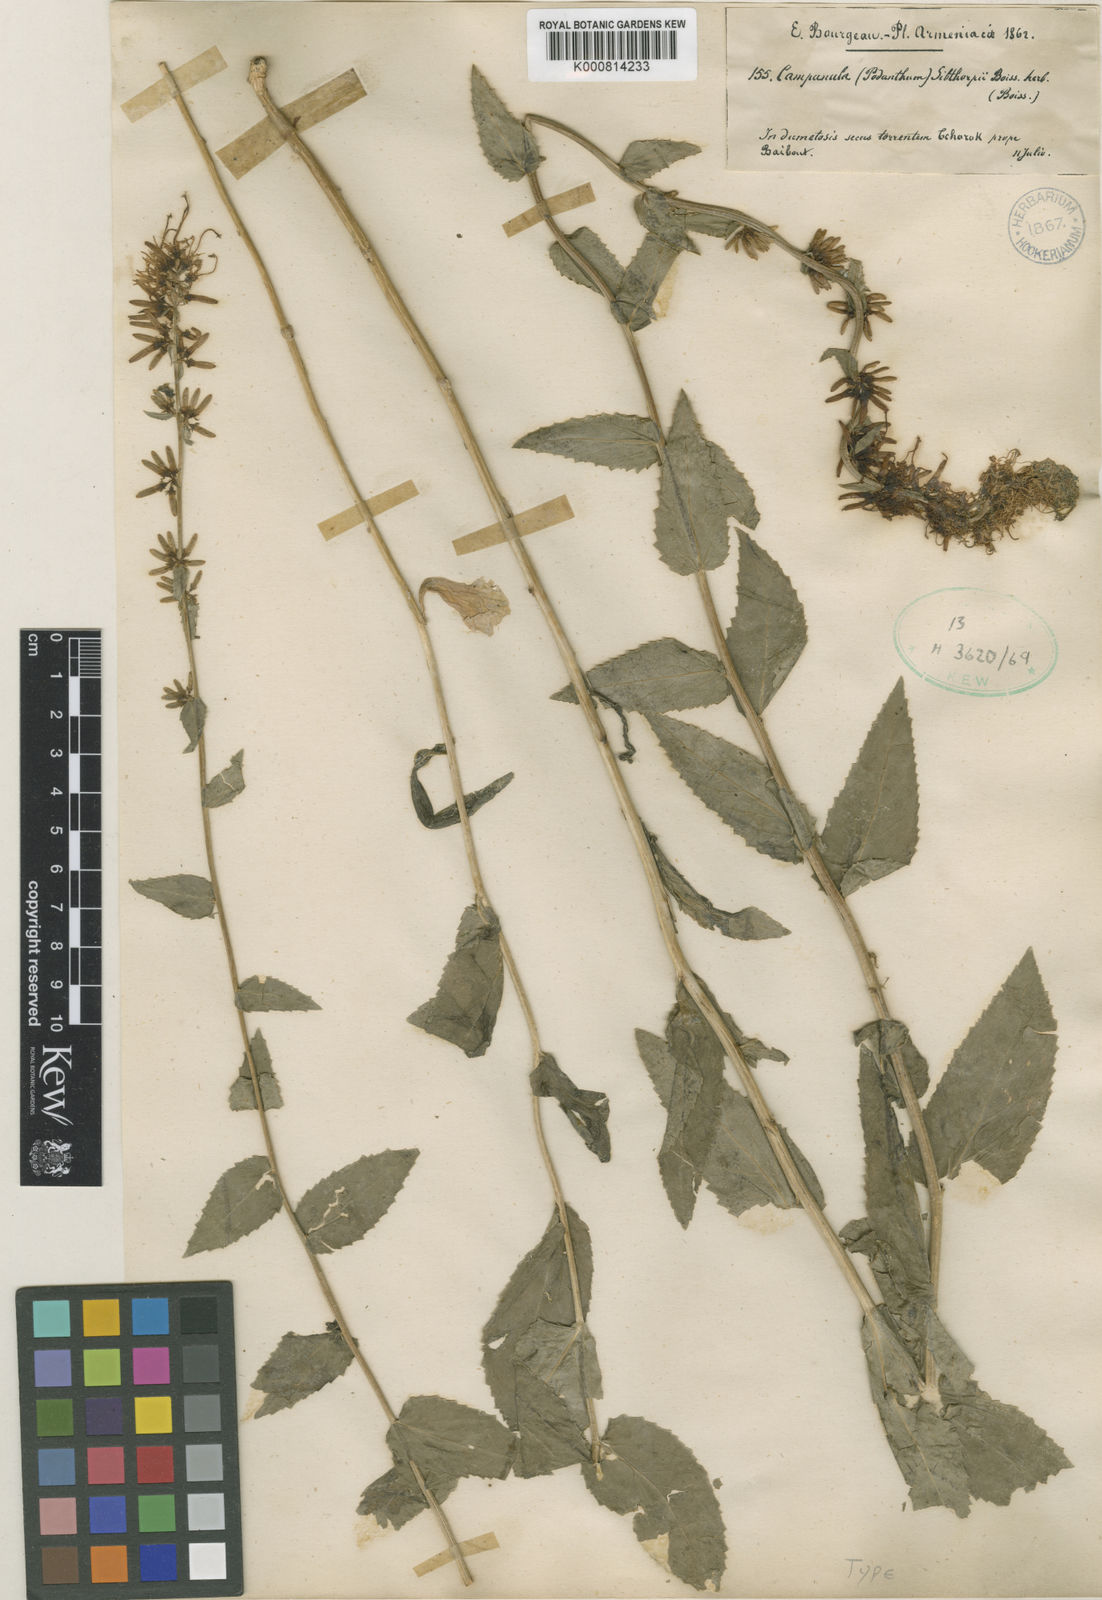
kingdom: Plantae
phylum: Tracheophyta
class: Magnoliopsida
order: Asterales
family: Campanulaceae
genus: Asyneuma
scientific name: Asyneuma rigidum
